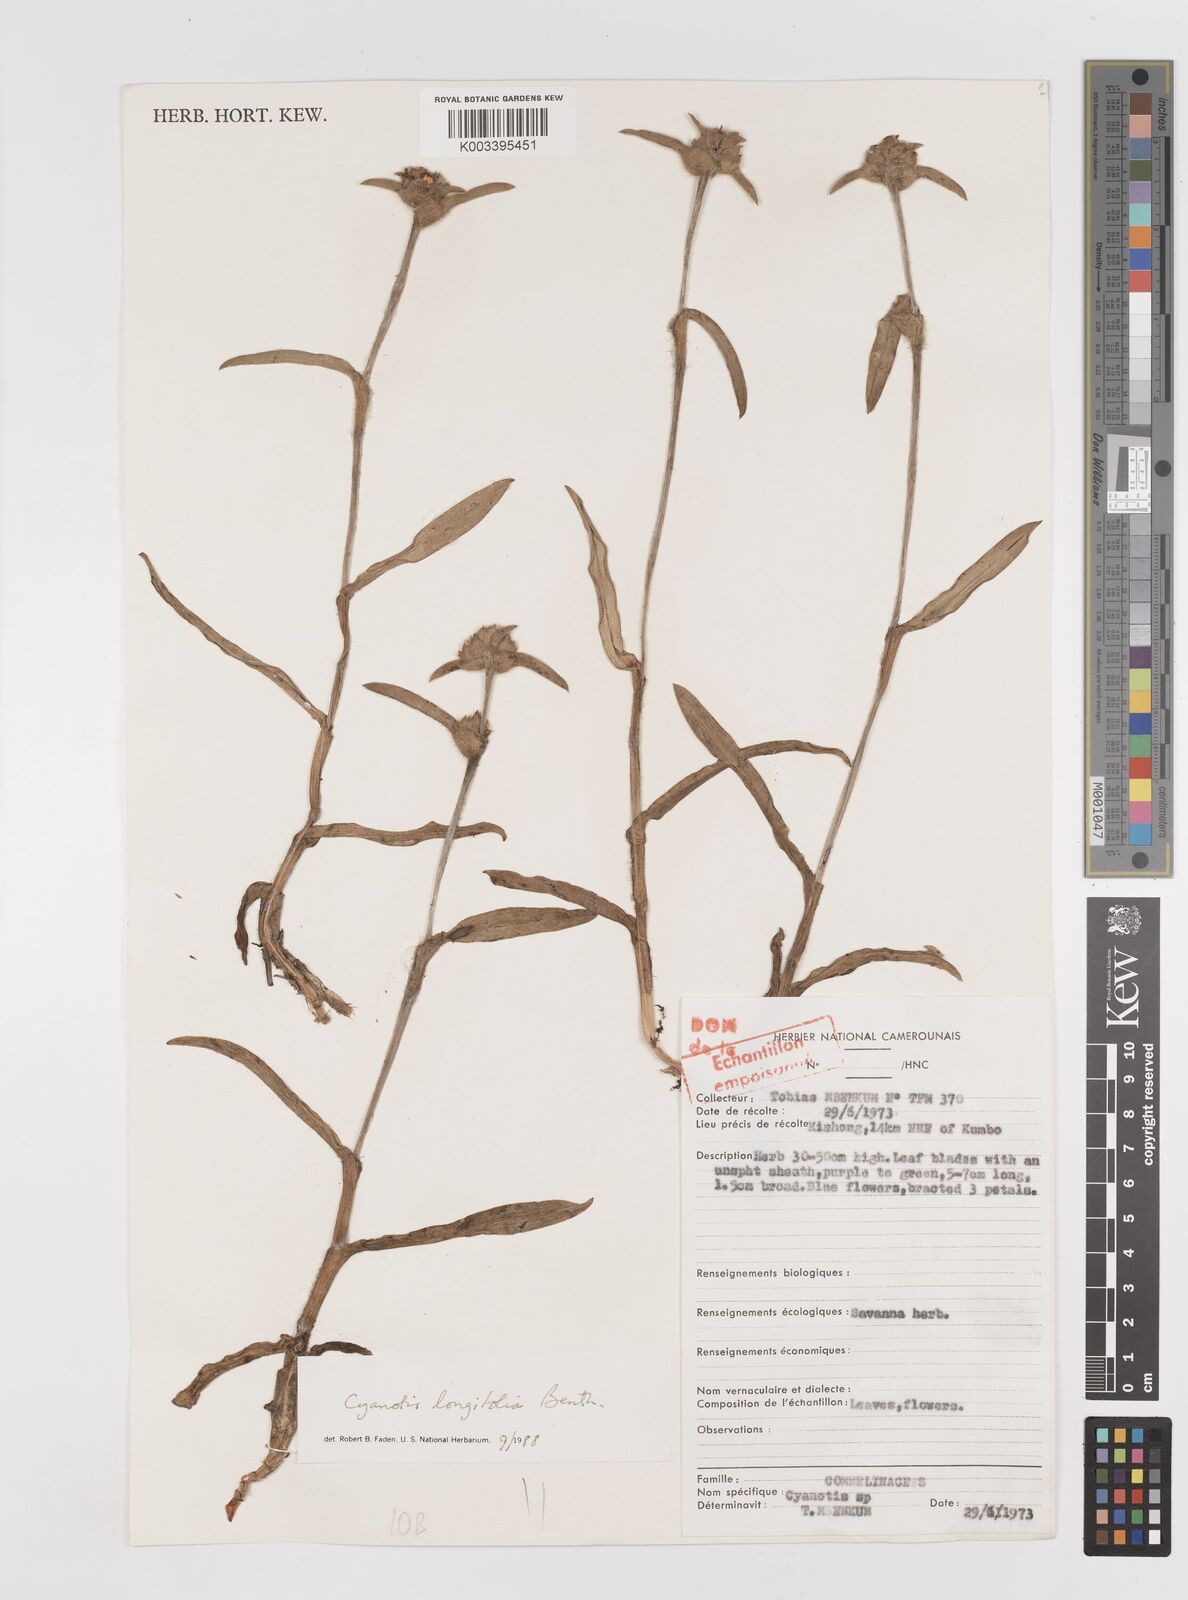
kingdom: Plantae
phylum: Tracheophyta
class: Liliopsida
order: Commelinales
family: Commelinaceae
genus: Cyanotis
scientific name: Cyanotis longifolia
